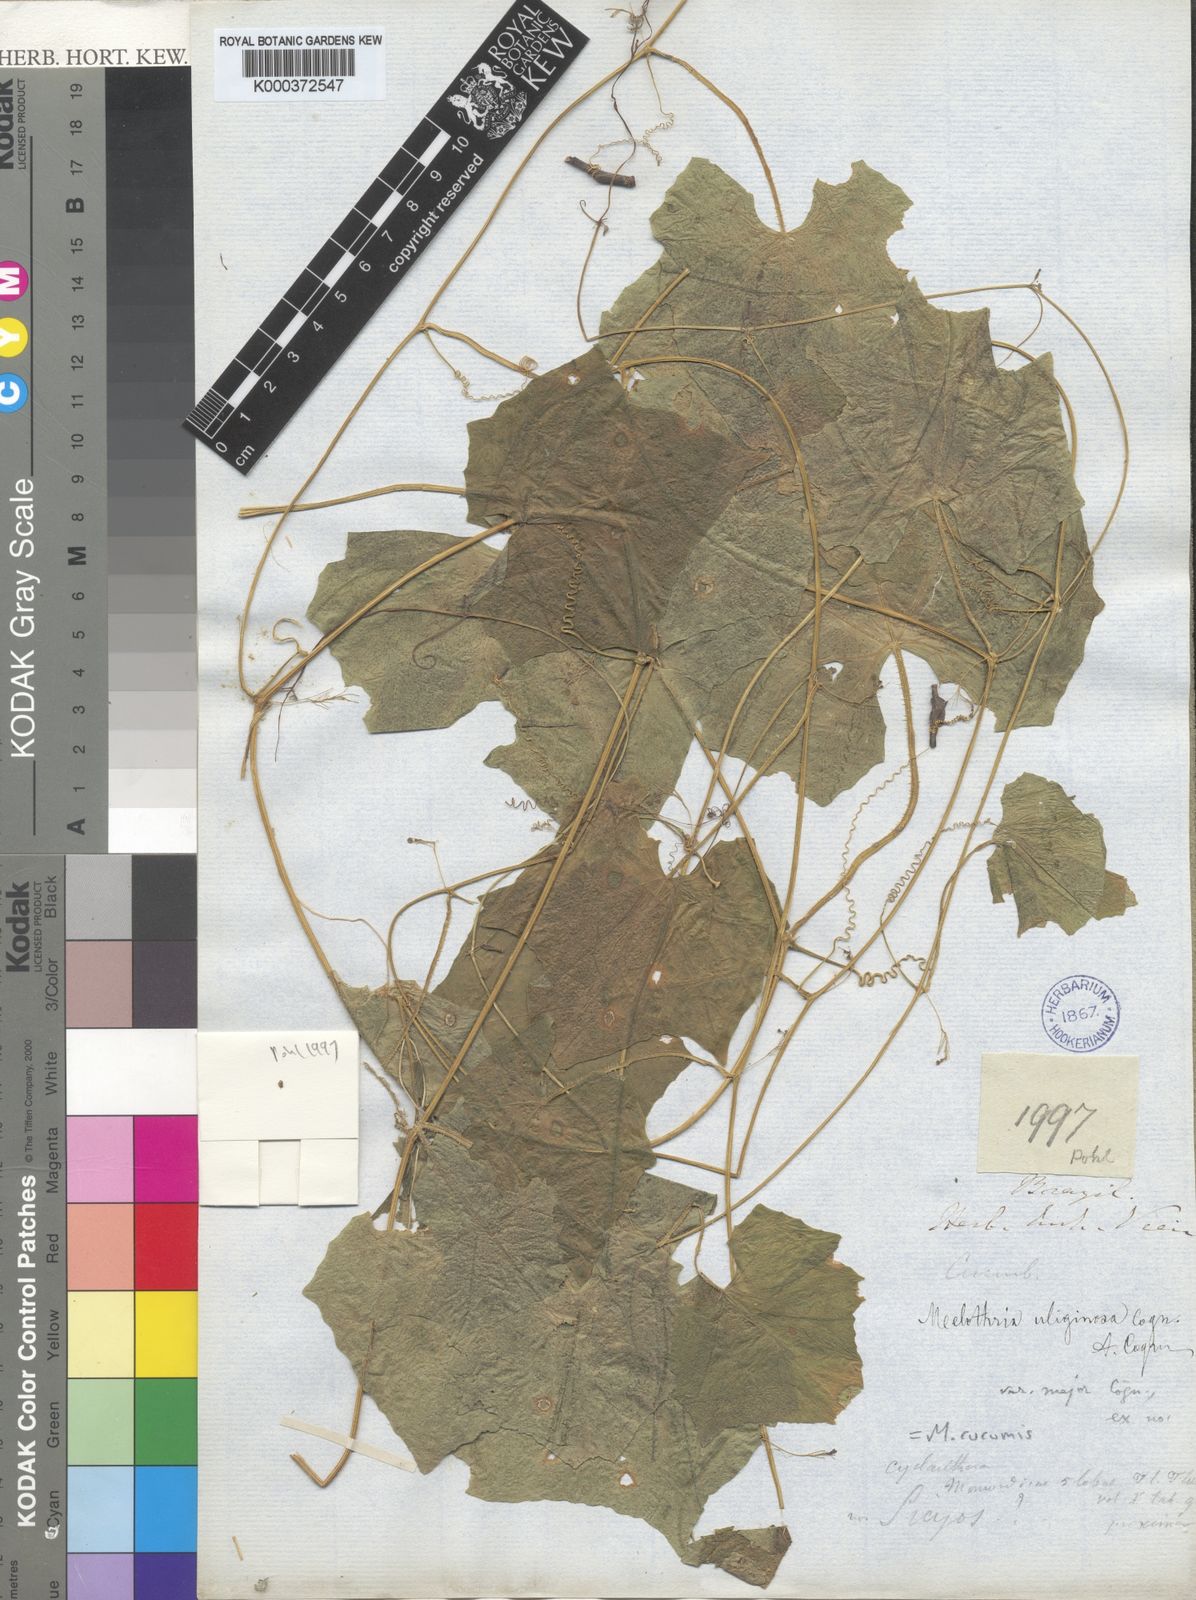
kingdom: Plantae
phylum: Tracheophyta
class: Magnoliopsida
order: Cucurbitales
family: Cucurbitaceae
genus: Melothria
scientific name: Melothria cucumis
